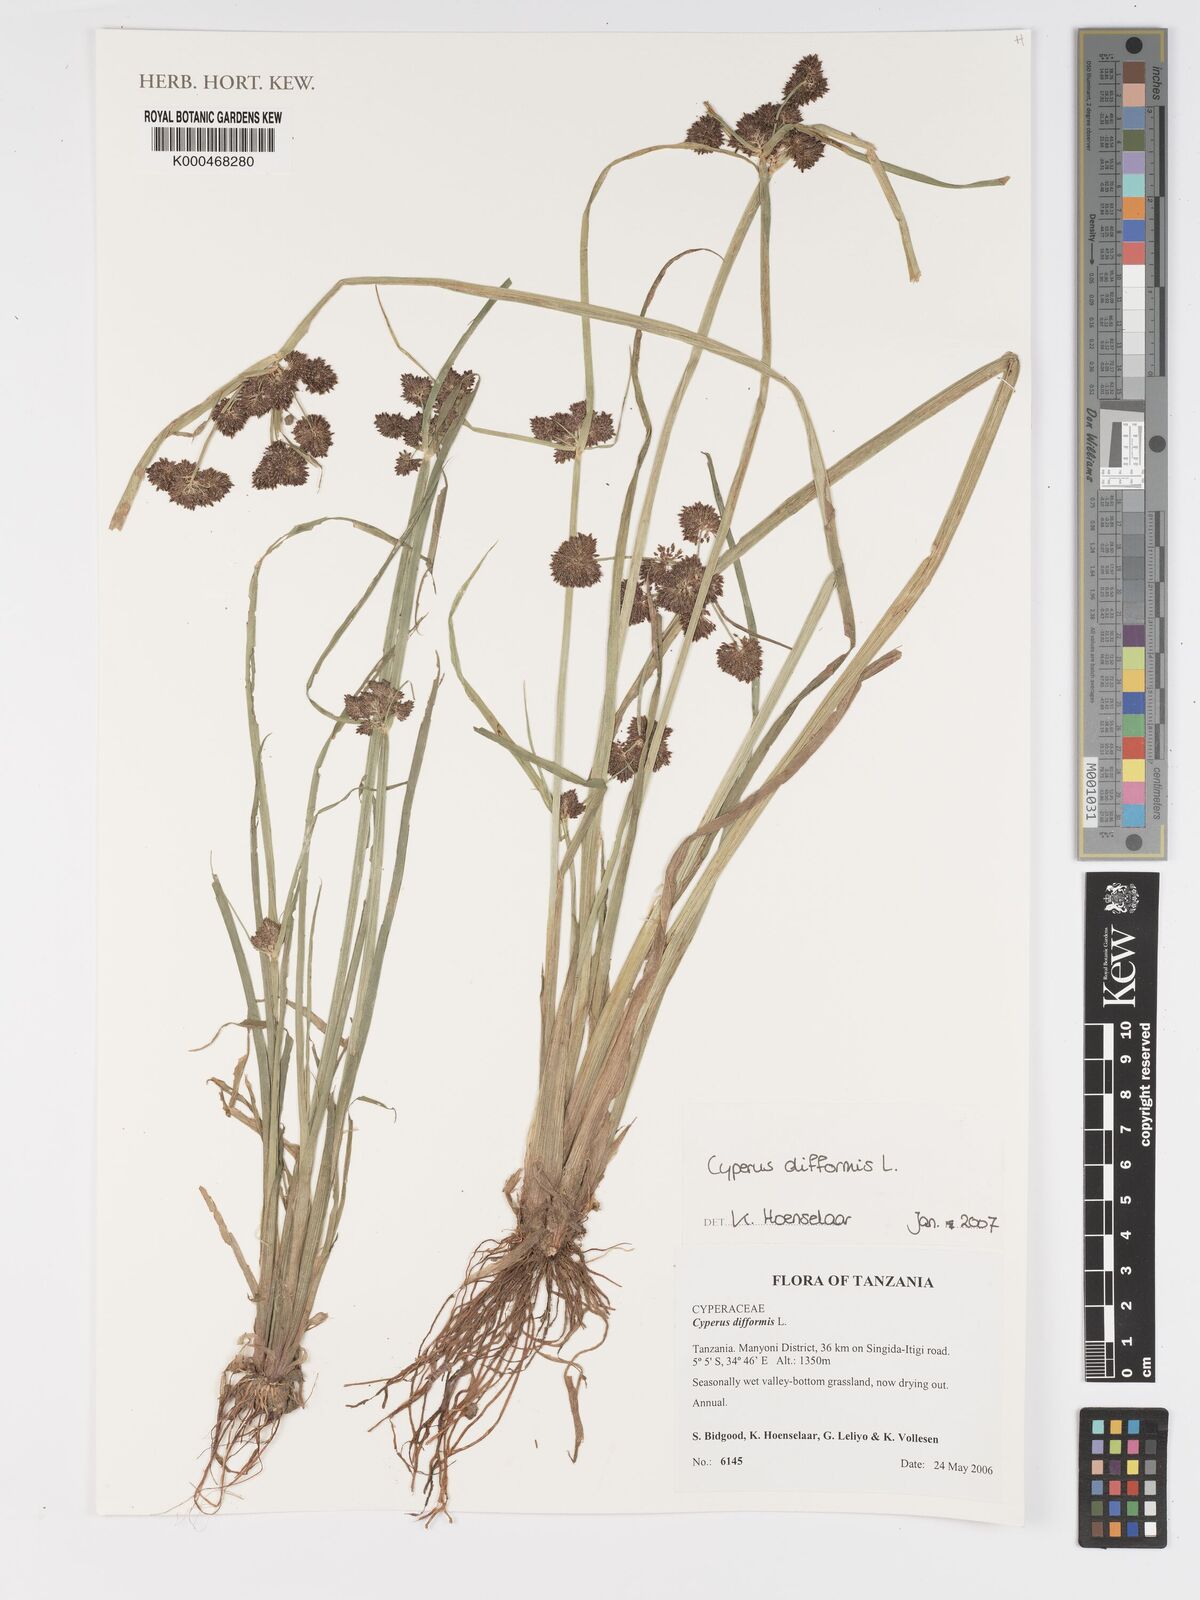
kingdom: Plantae
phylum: Tracheophyta
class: Liliopsida
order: Poales
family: Cyperaceae
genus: Cyperus
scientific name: Cyperus difformis
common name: Variable flatsedge
